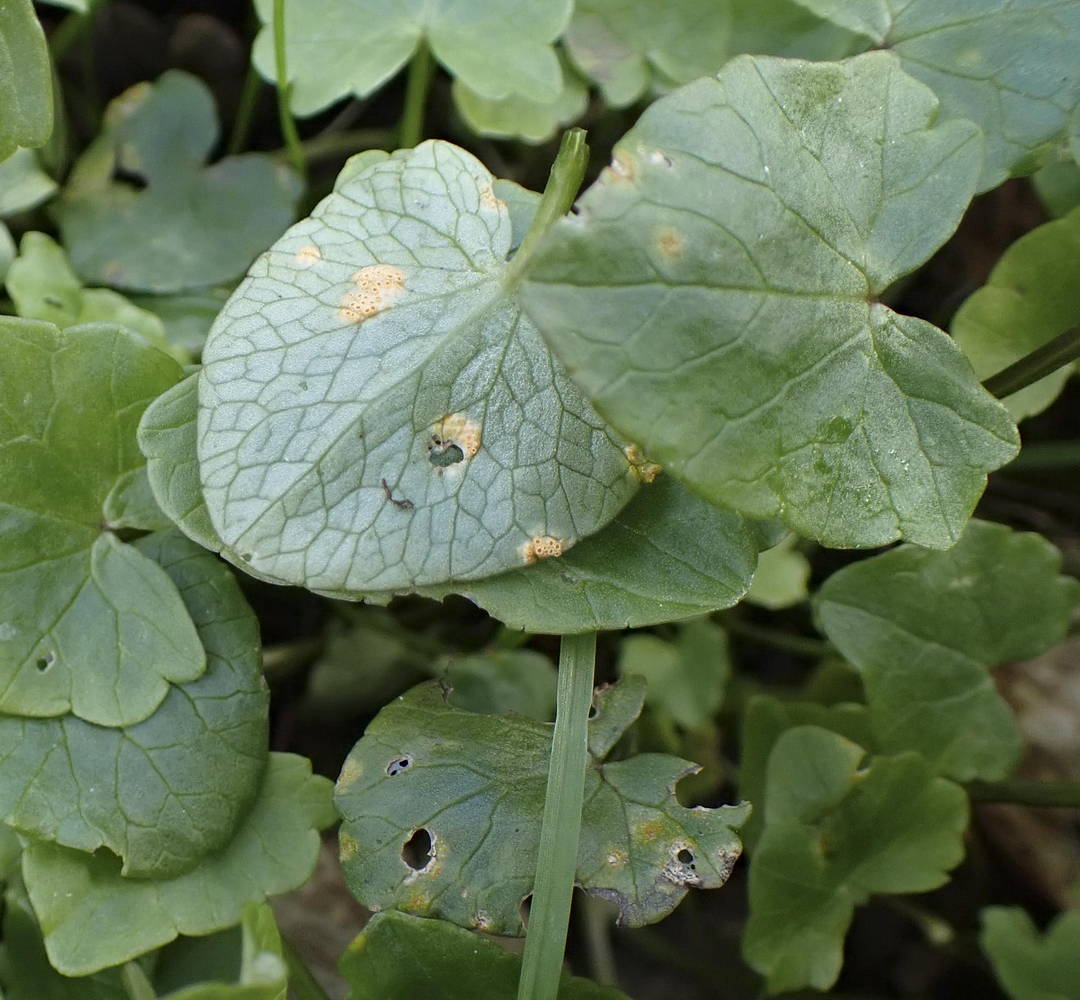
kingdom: Fungi
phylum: Basidiomycota
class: Pucciniomycetes
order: Pucciniales
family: Pucciniaceae
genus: Uromyces
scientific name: Uromyces dactylidis
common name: ranunkel-encellerust
